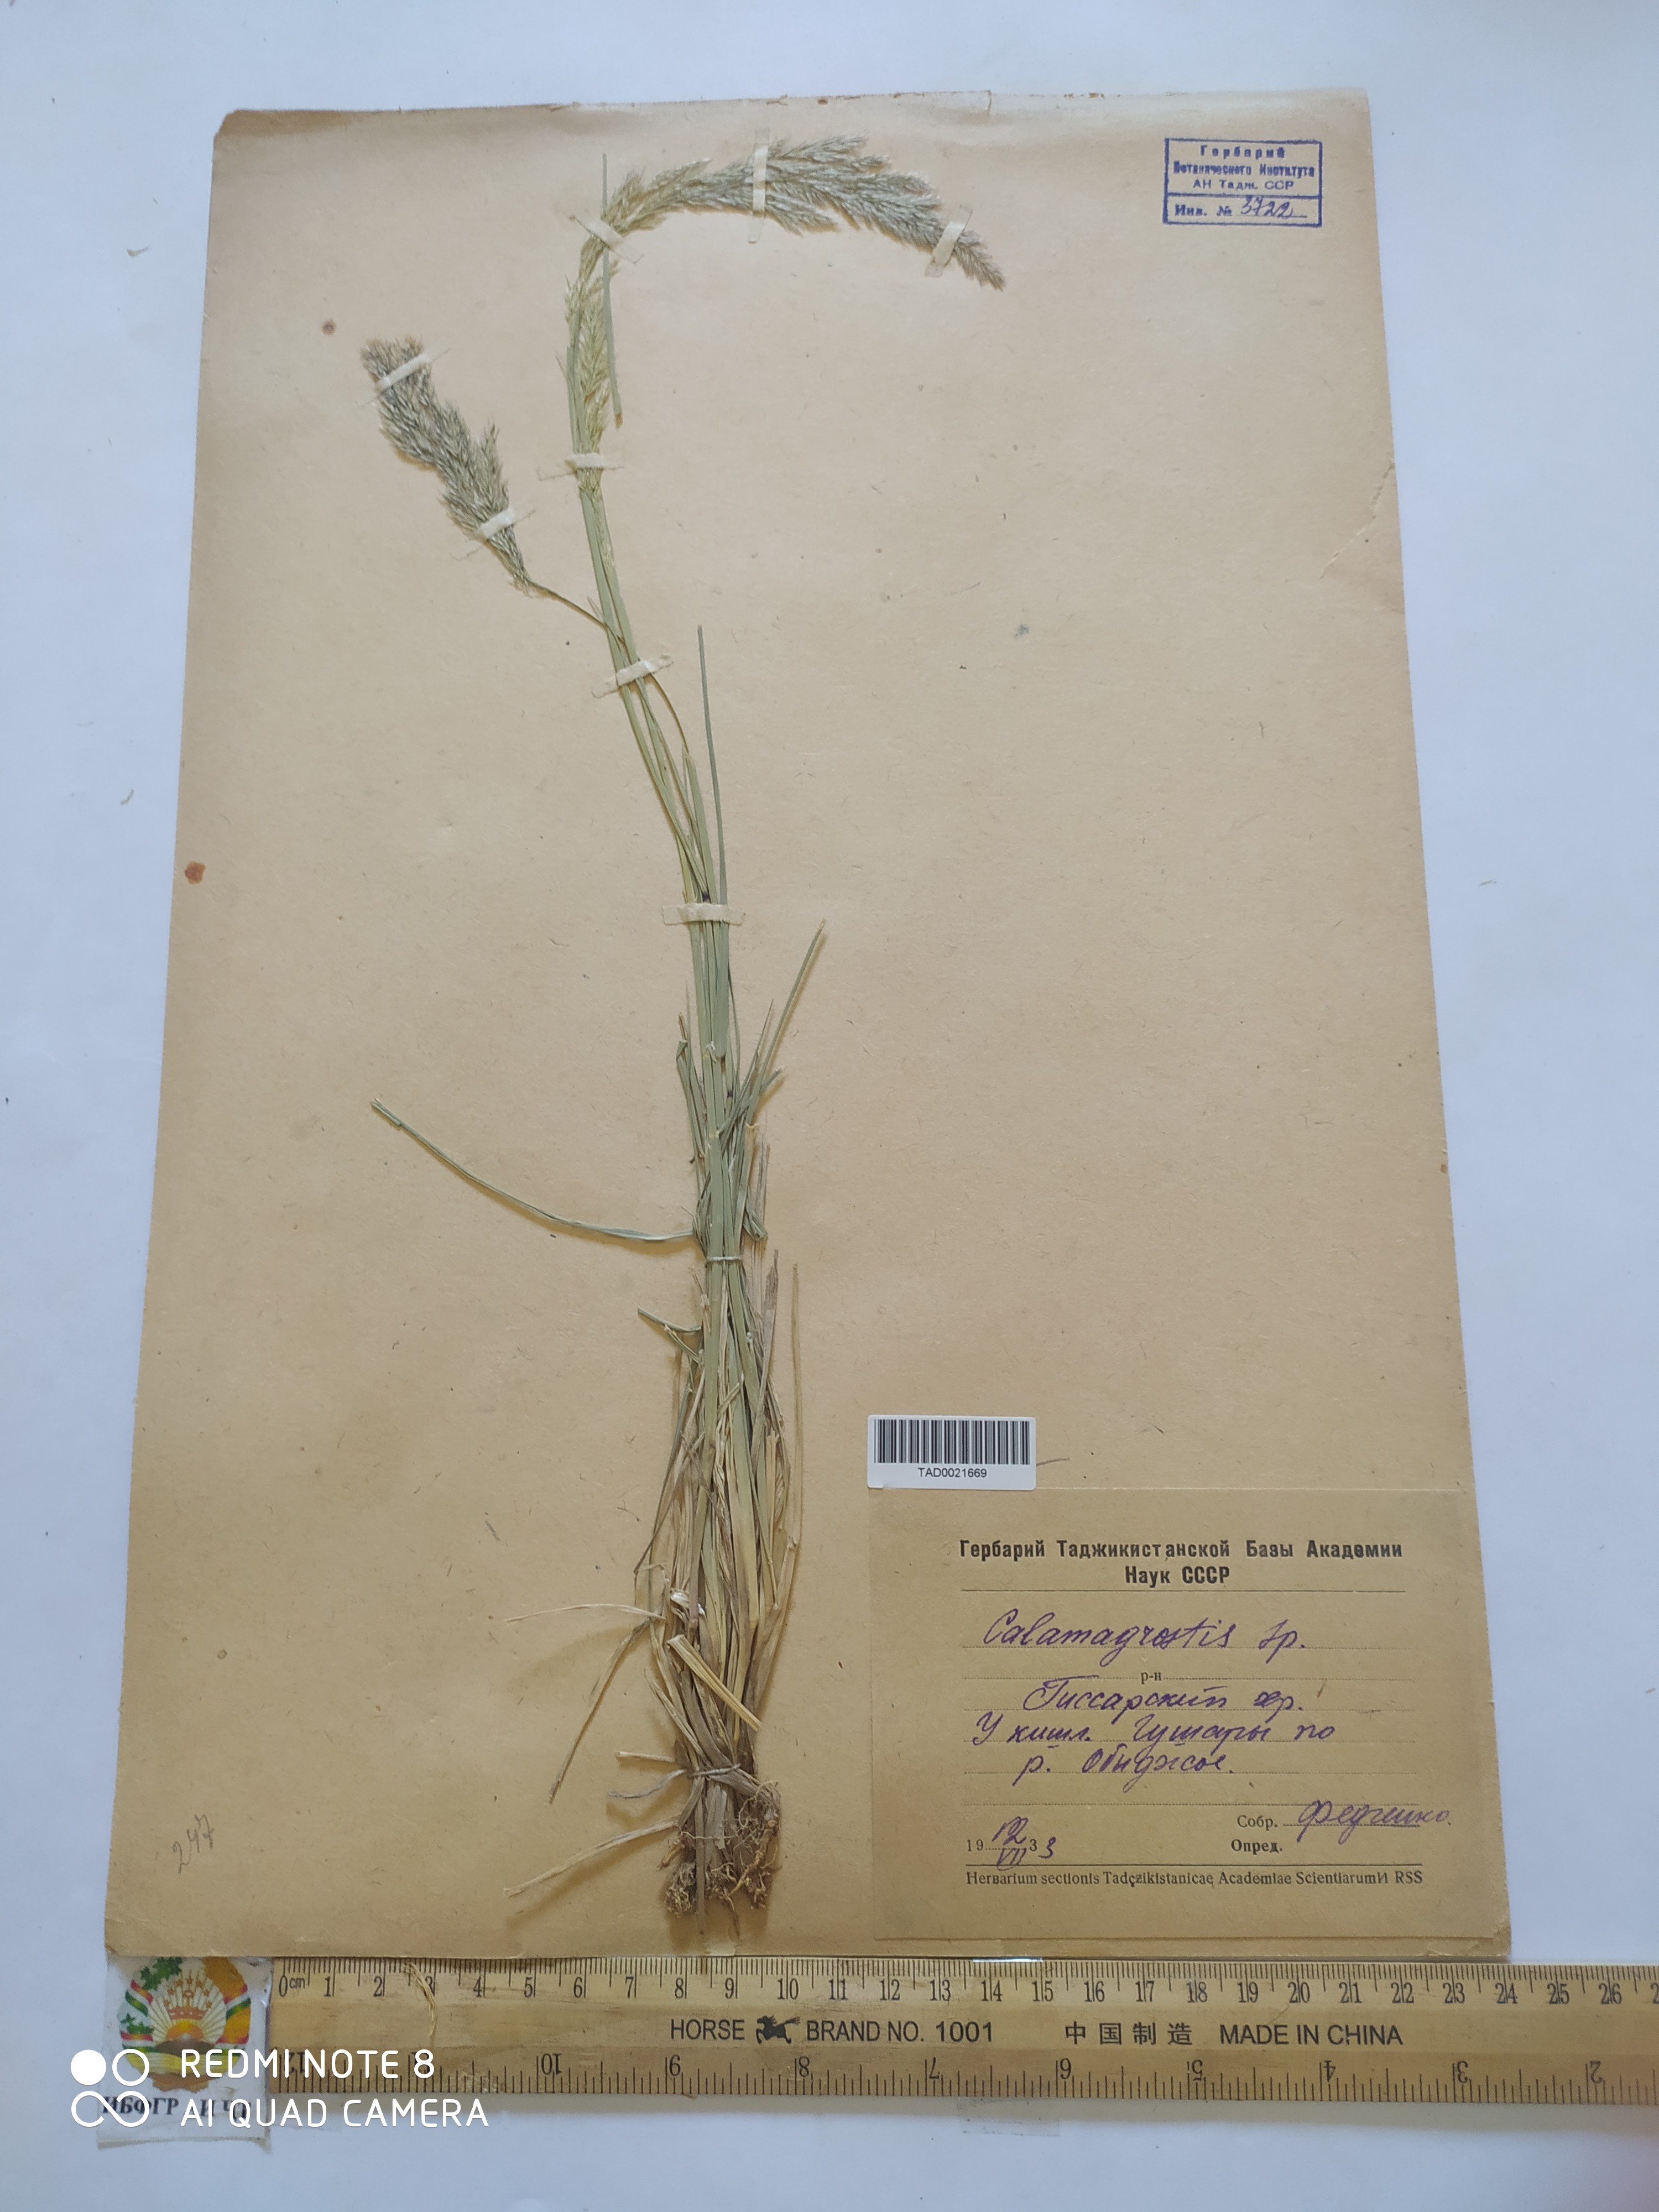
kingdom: Plantae
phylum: Tracheophyta
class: Liliopsida
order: Poales
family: Poaceae
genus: Calamagrostis
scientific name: Calamagrostis epigejos
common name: Wood small-reed
